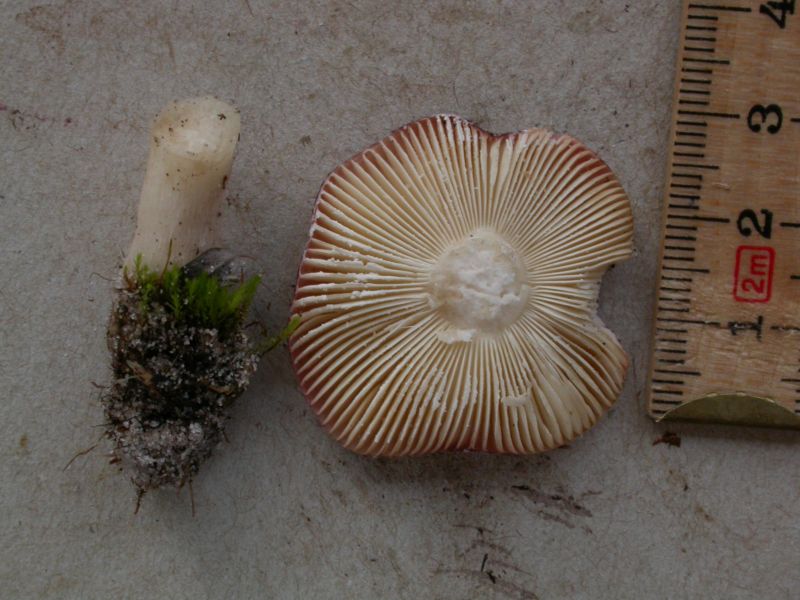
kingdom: Fungi
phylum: Basidiomycota
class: Agaricomycetes
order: Russulales
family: Russulaceae
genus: Russula
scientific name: Russula laccata
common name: klit-skørhat
